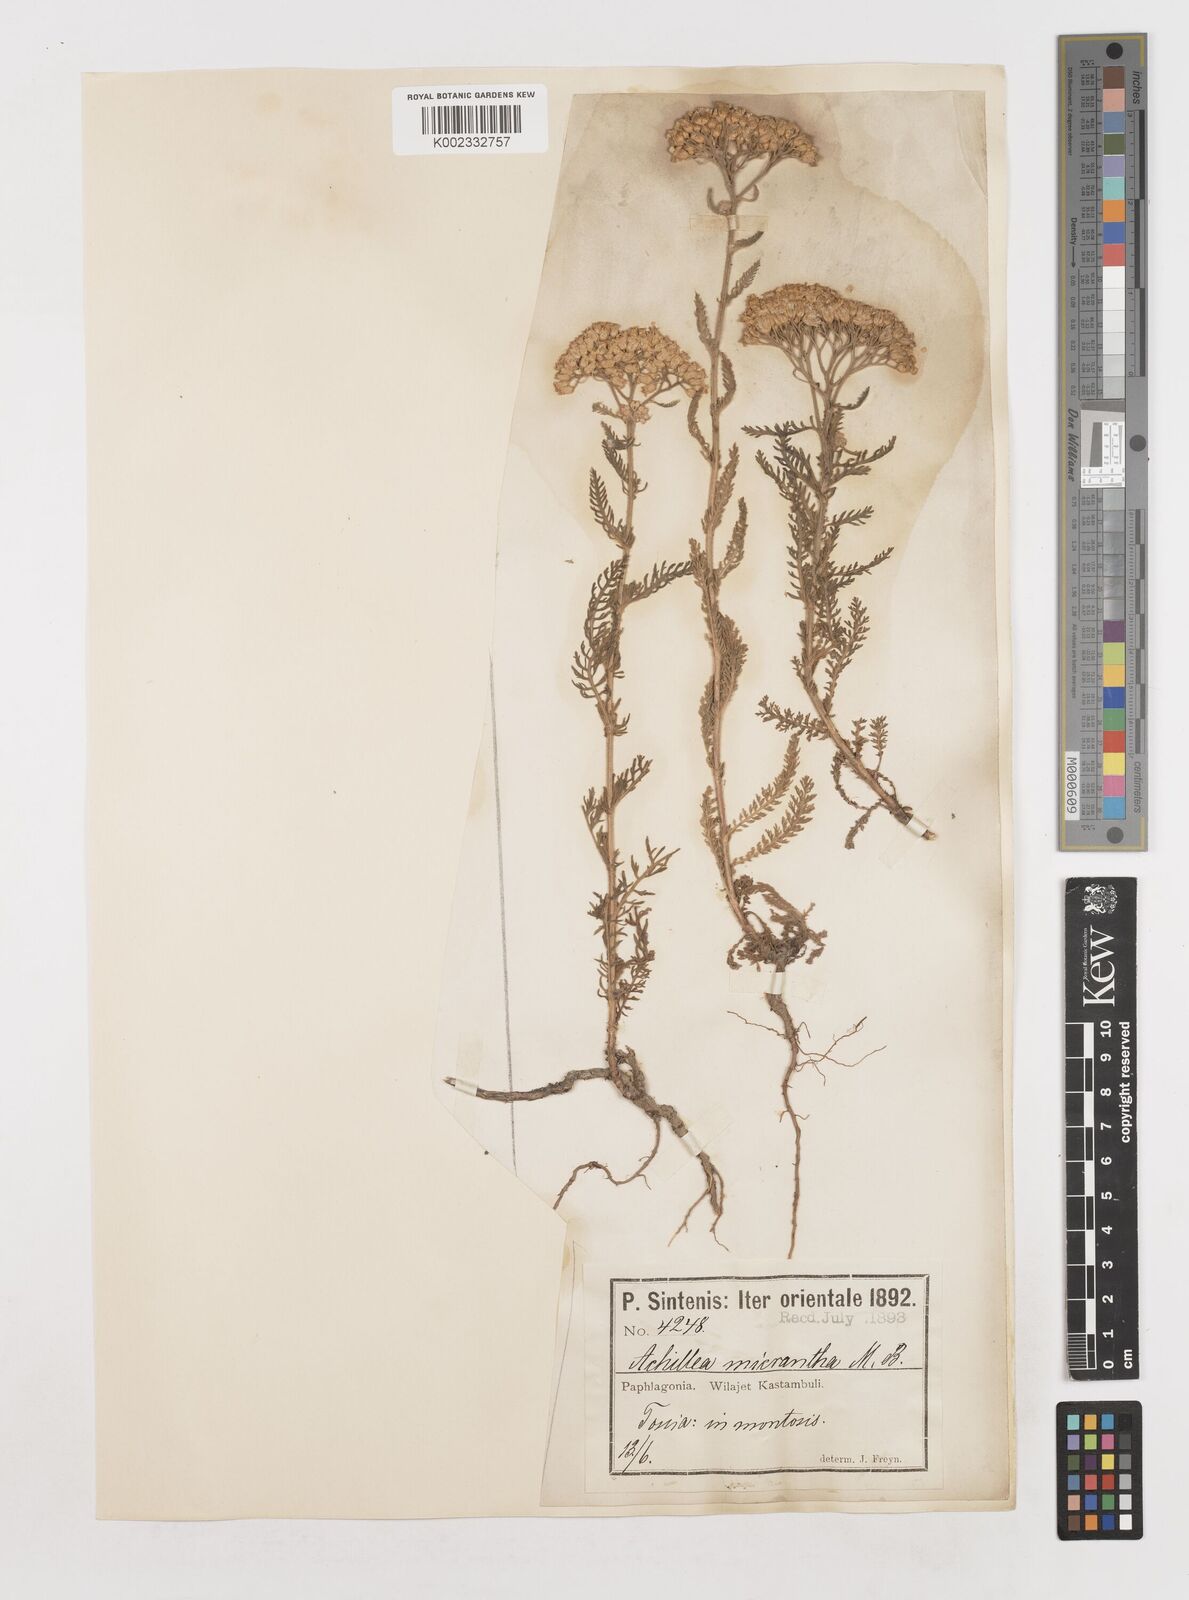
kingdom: Plantae
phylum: Tracheophyta
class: Magnoliopsida
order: Asterales
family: Asteraceae
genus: Achillea
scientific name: Achillea micrantha
